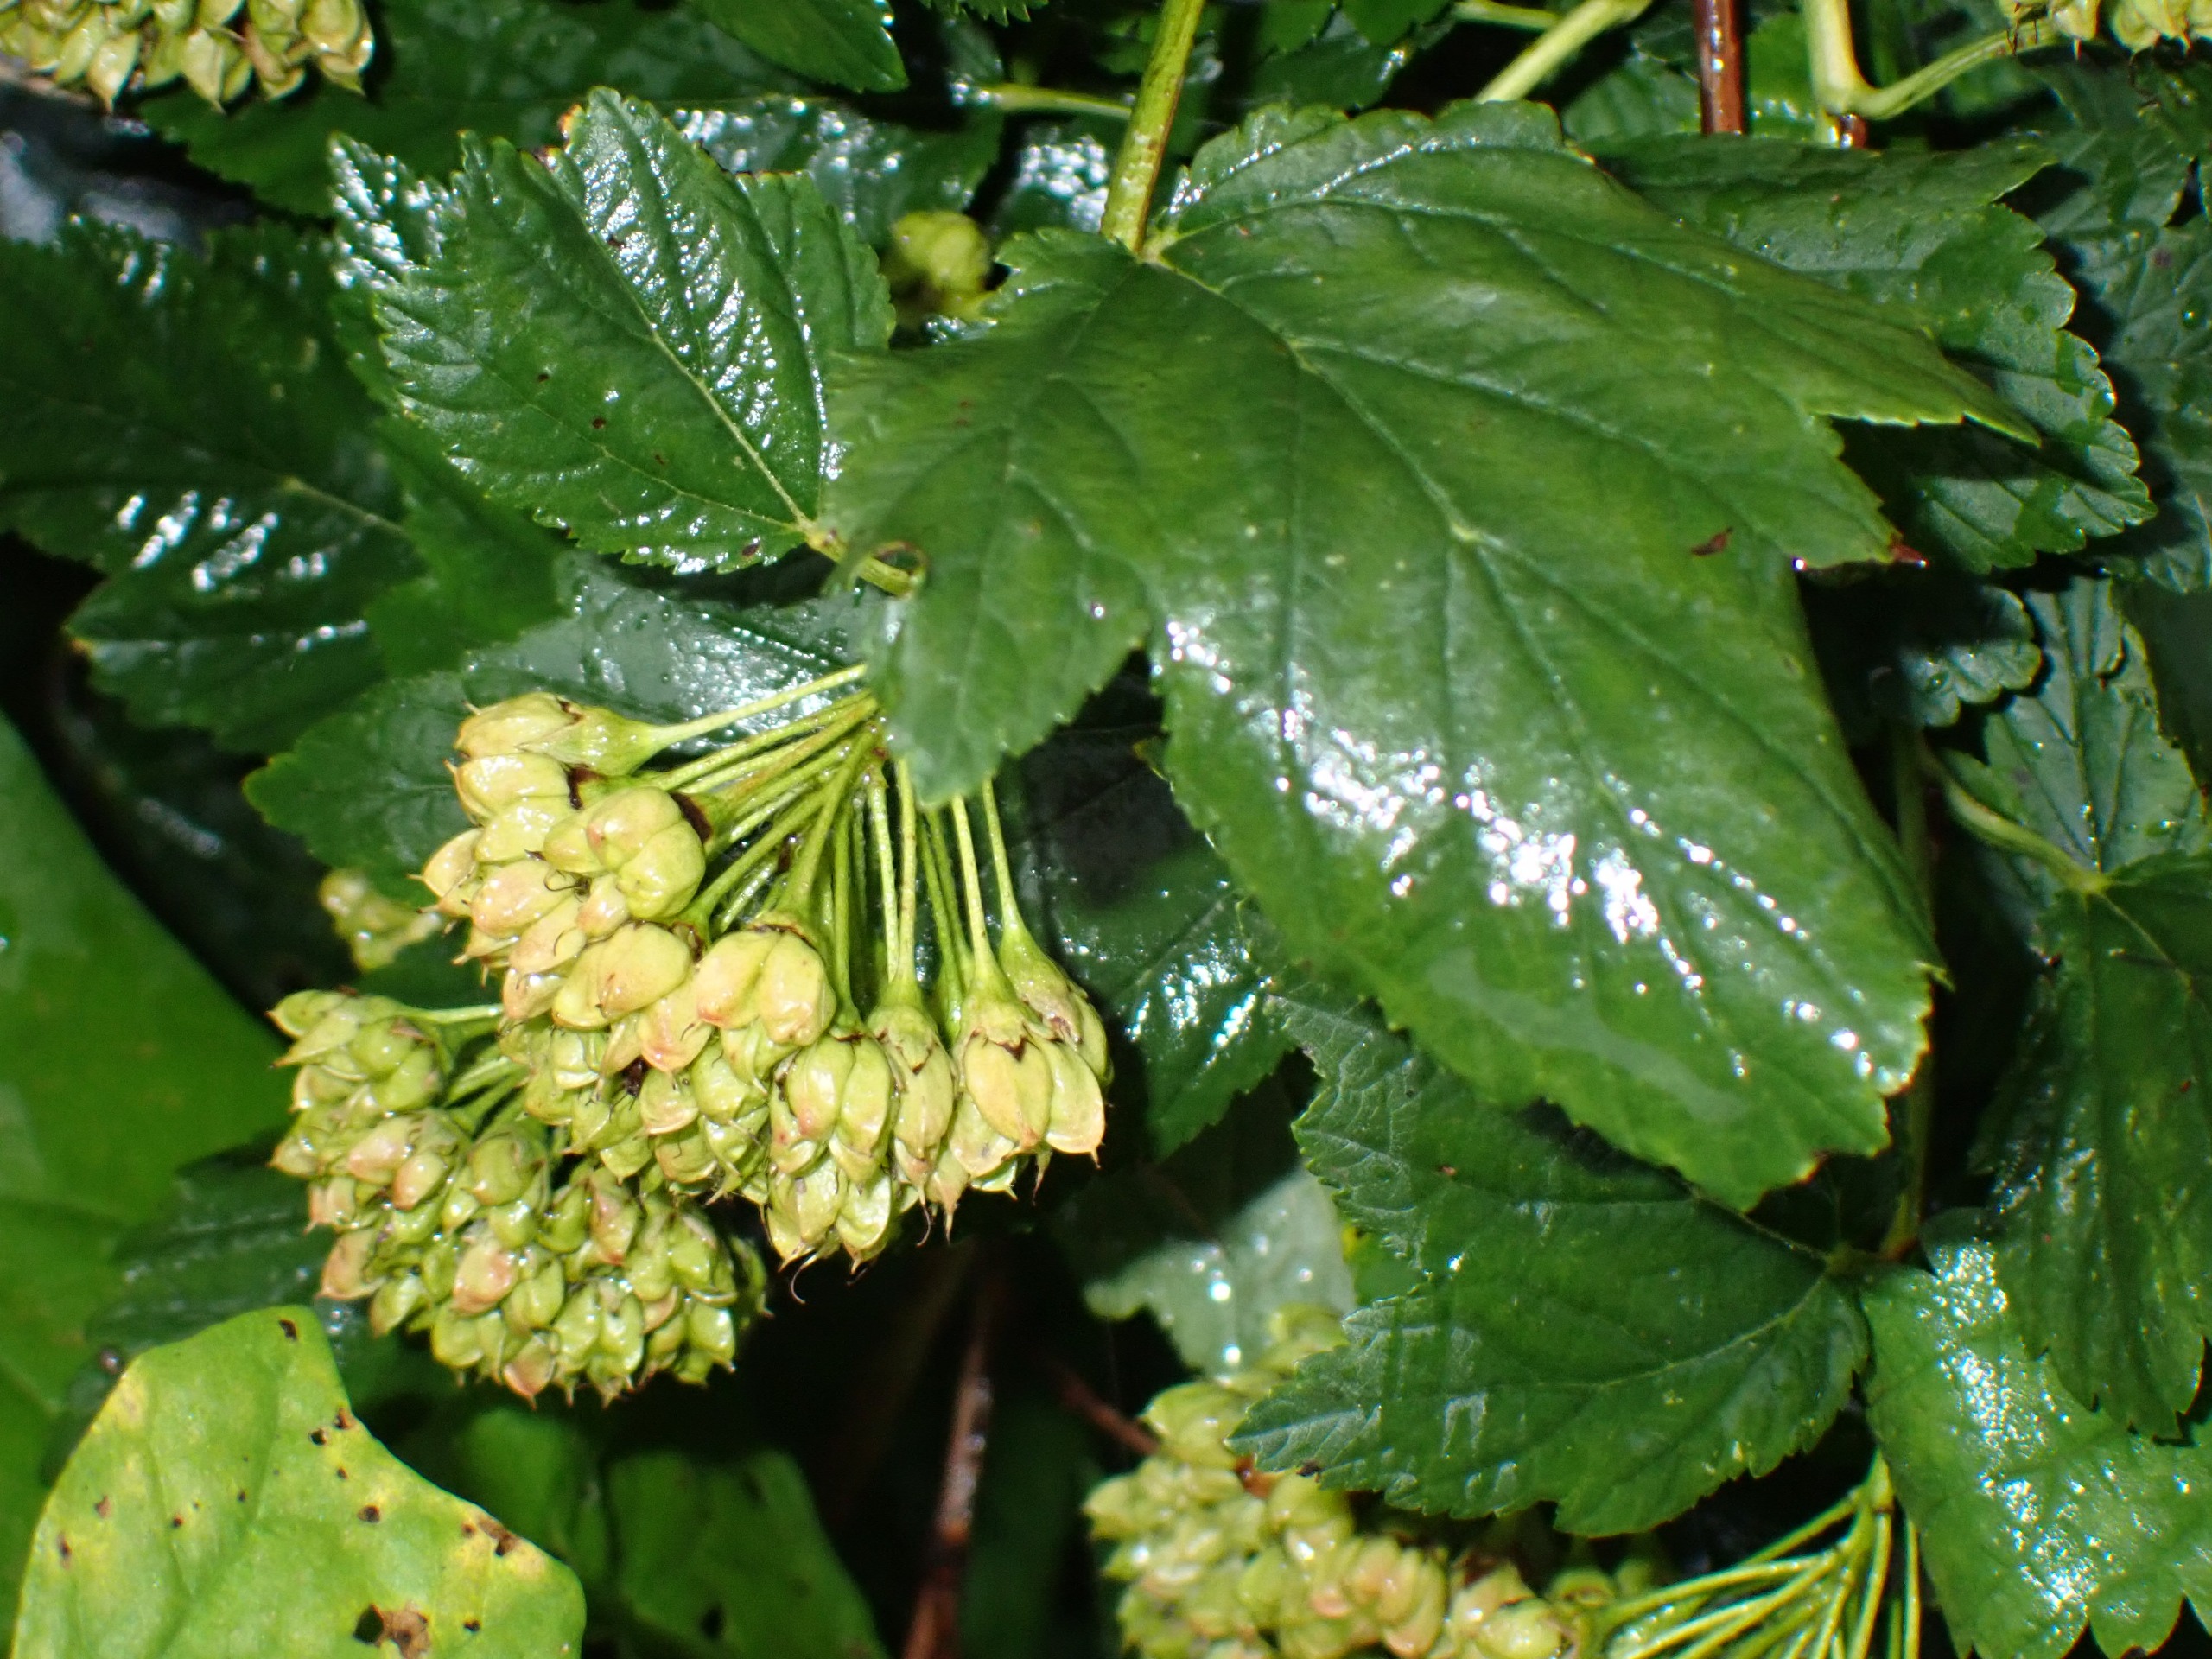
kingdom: Plantae
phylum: Tracheophyta
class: Magnoliopsida
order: Rosales
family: Rosaceae
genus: Physocarpus
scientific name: Physocarpus opulifolius
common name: Almindelig blærespiræa
